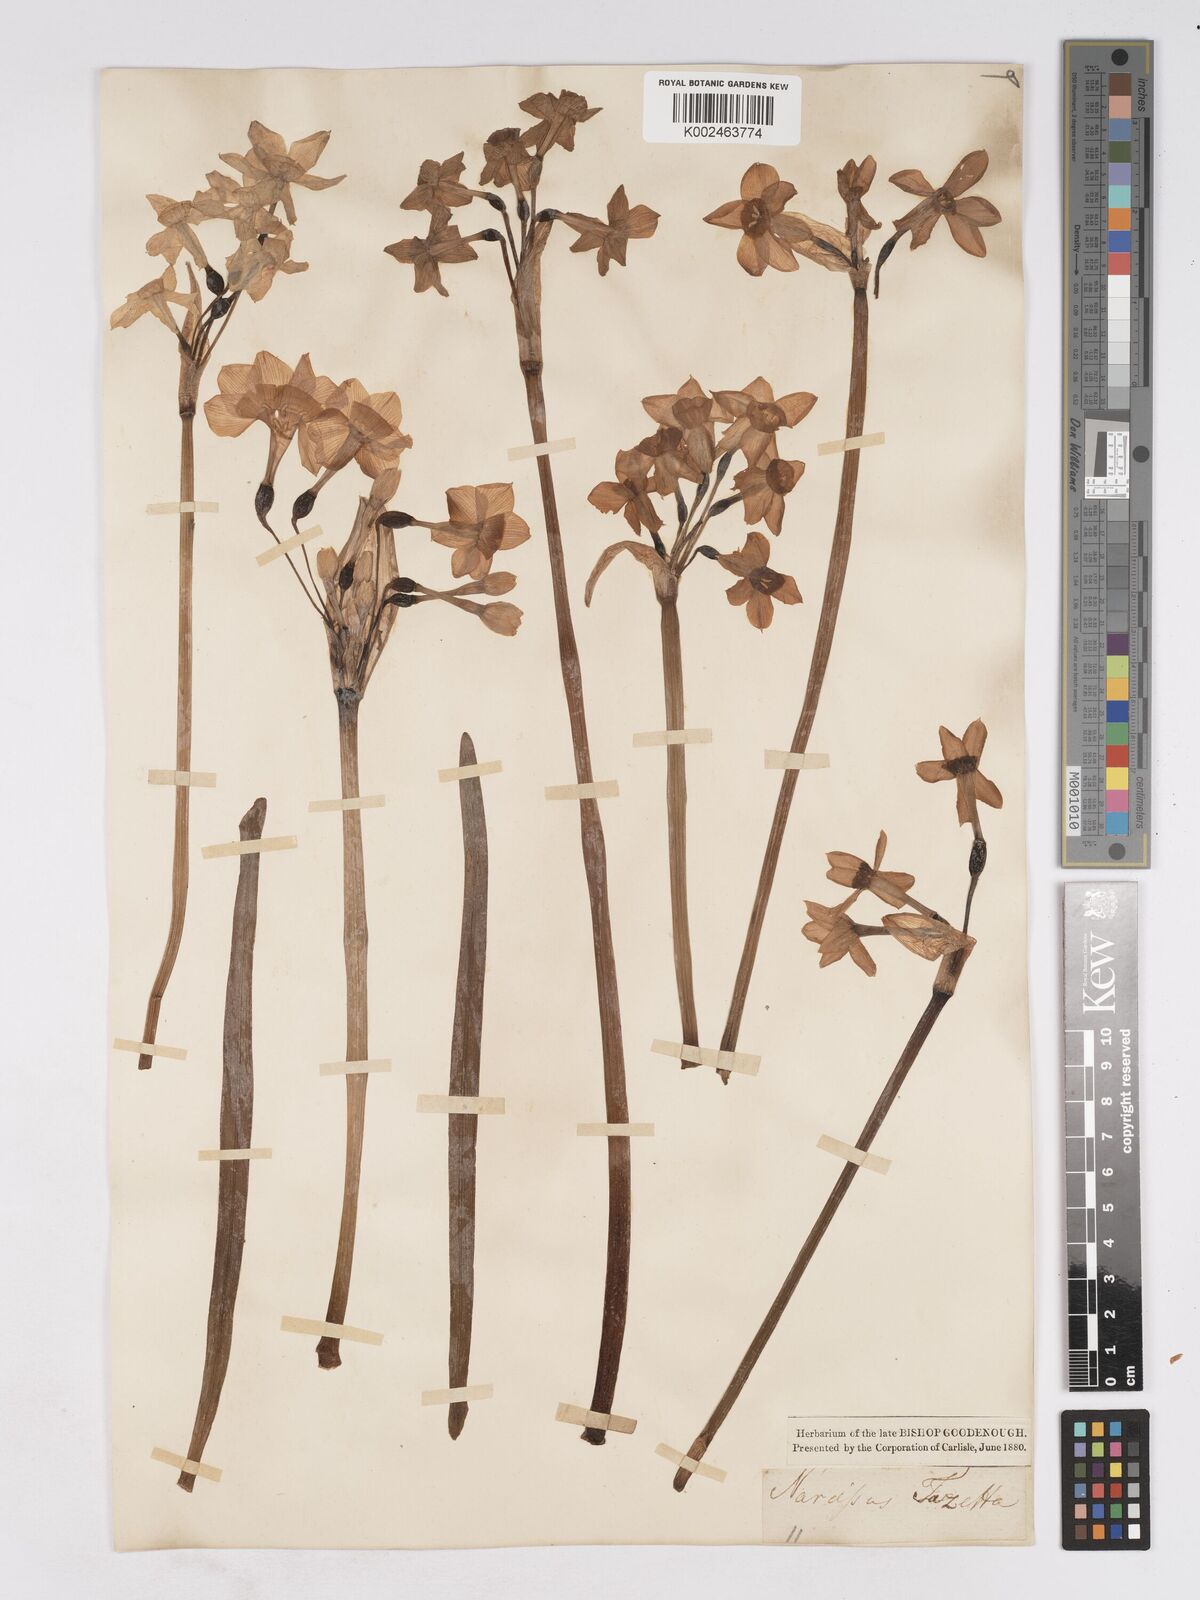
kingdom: Plantae
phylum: Tracheophyta
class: Liliopsida
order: Asparagales
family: Amaryllidaceae
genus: Narcissus
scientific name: Narcissus
